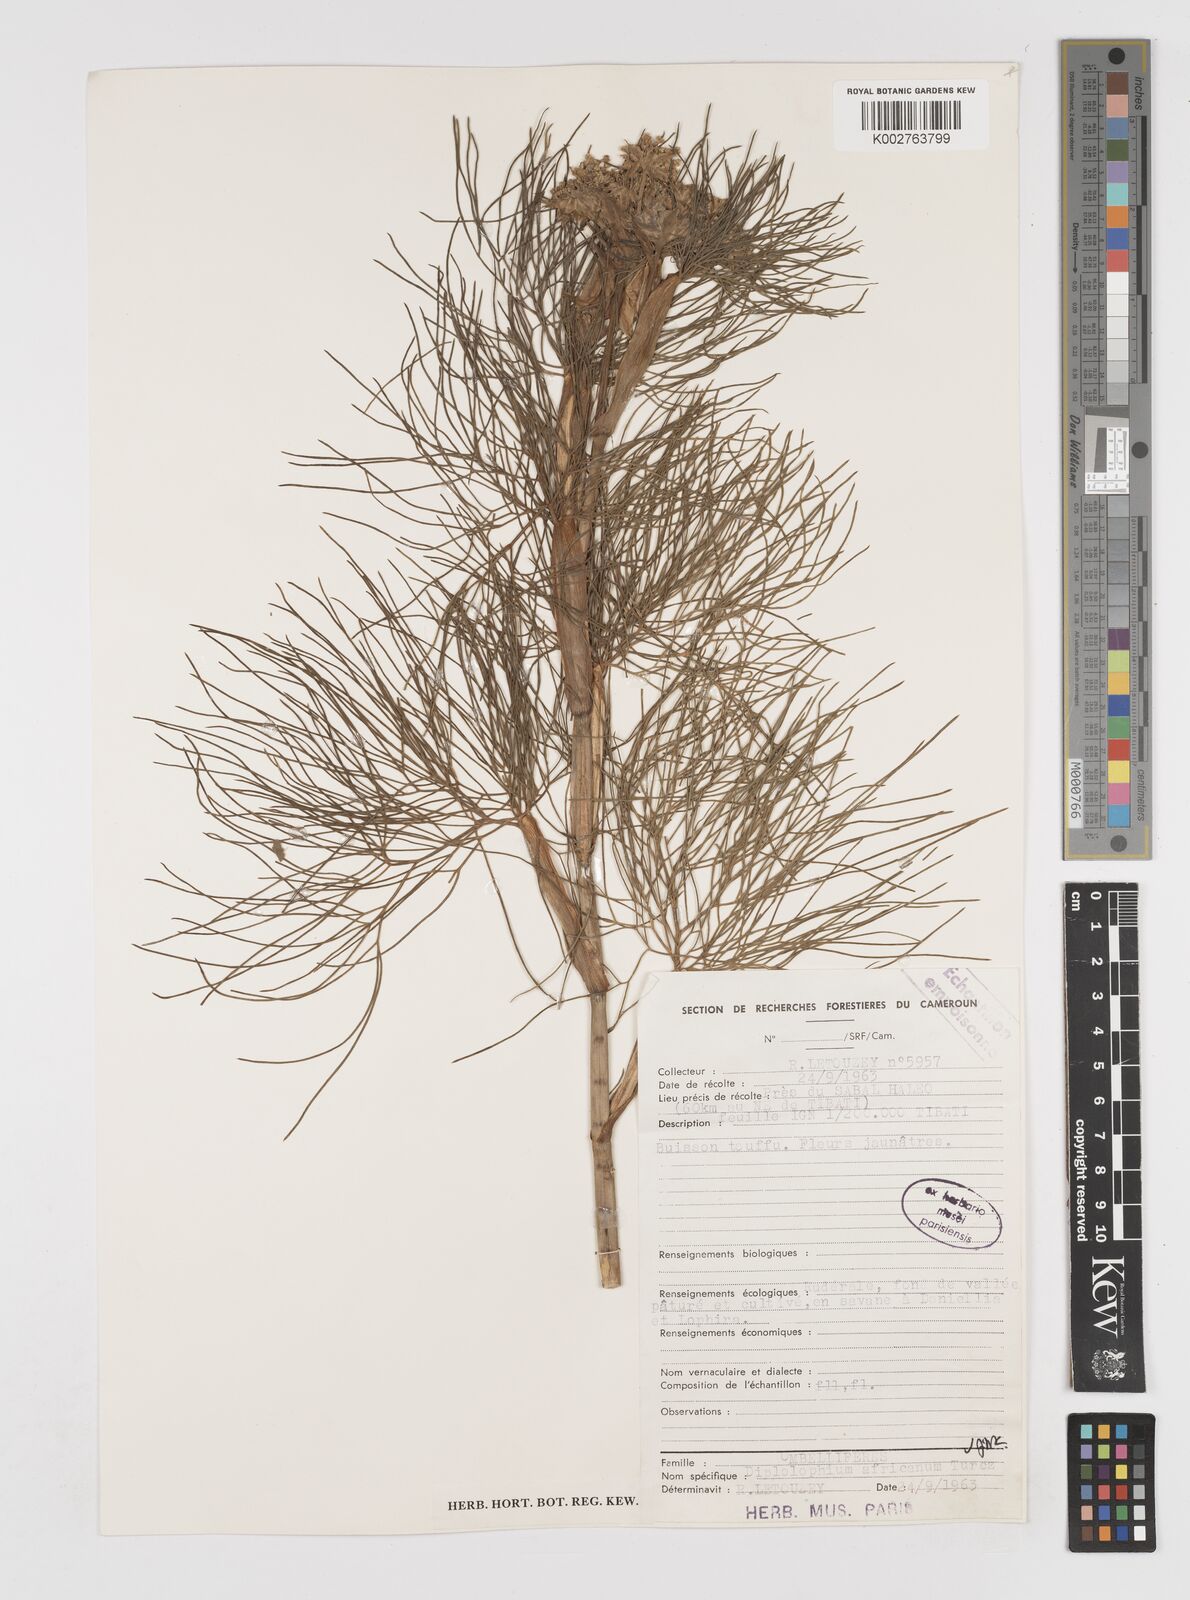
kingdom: Plantae
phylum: Tracheophyta
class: Magnoliopsida
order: Apiales
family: Apiaceae
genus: Diplolophium
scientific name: Diplolophium africanum
